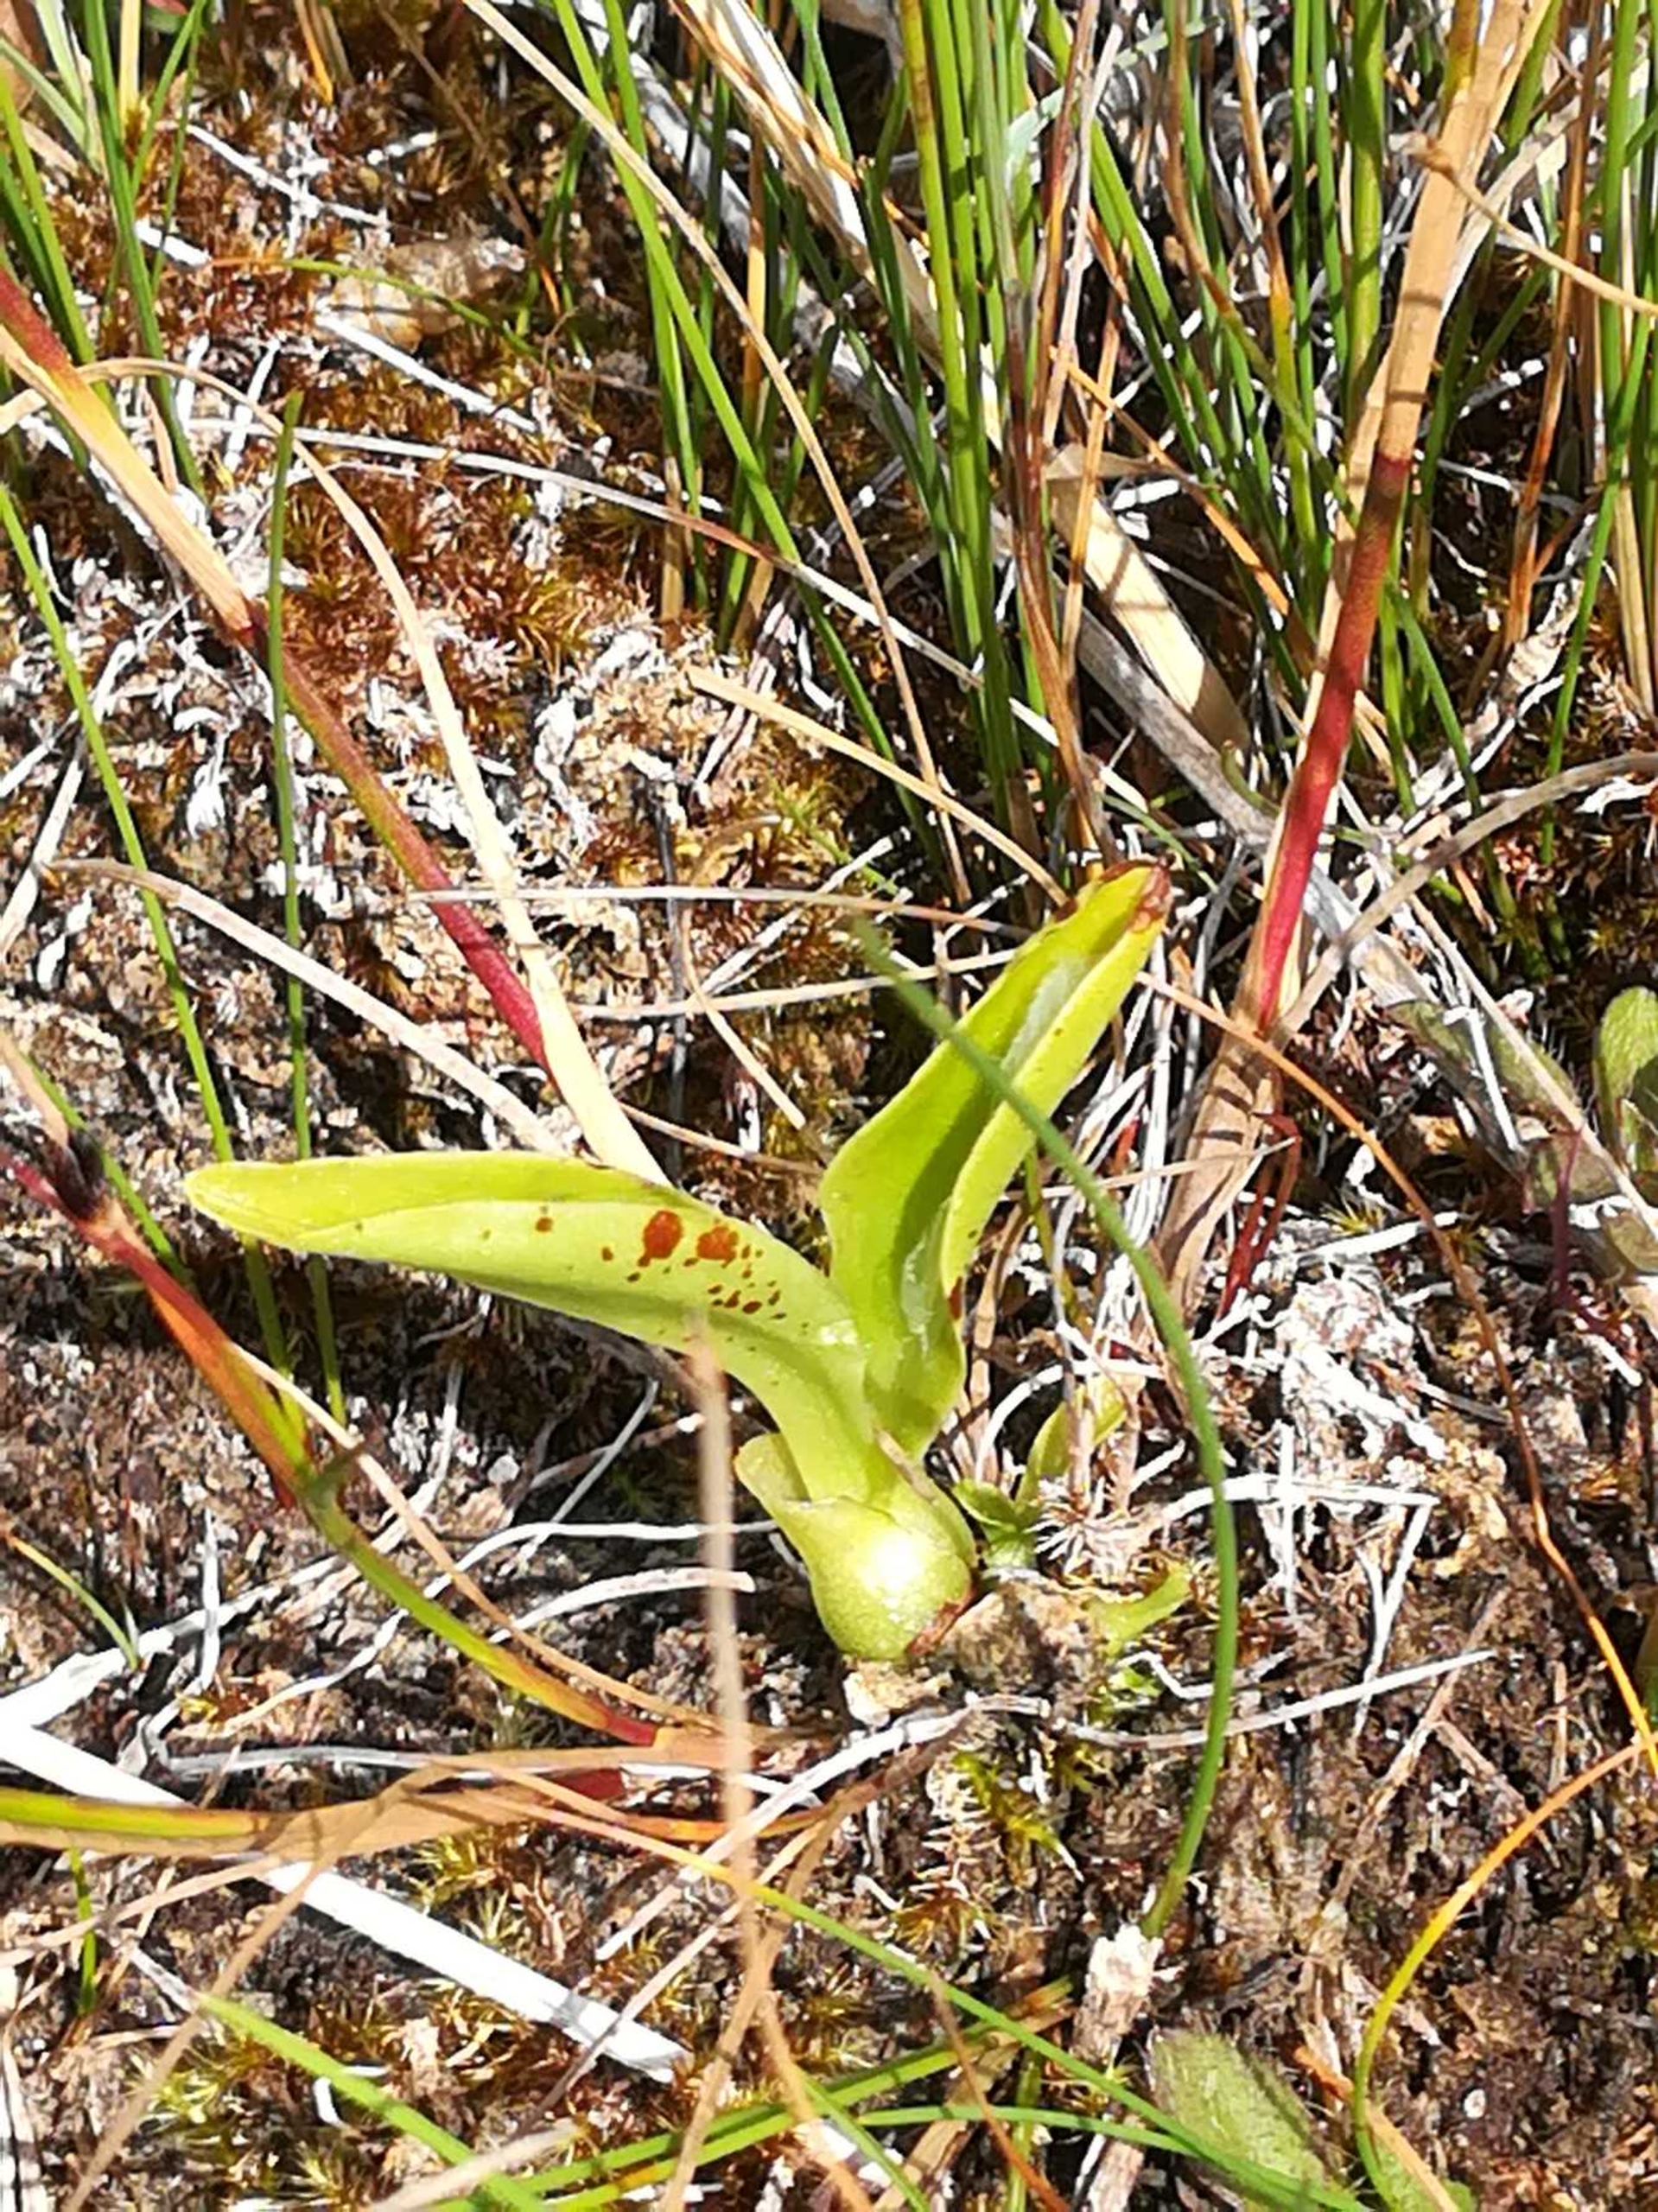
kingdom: Animalia
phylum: Arthropoda
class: Insecta
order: Coleoptera
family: Curculionidae
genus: Liparis
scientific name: Liparis loeselii
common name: Mygblomst
